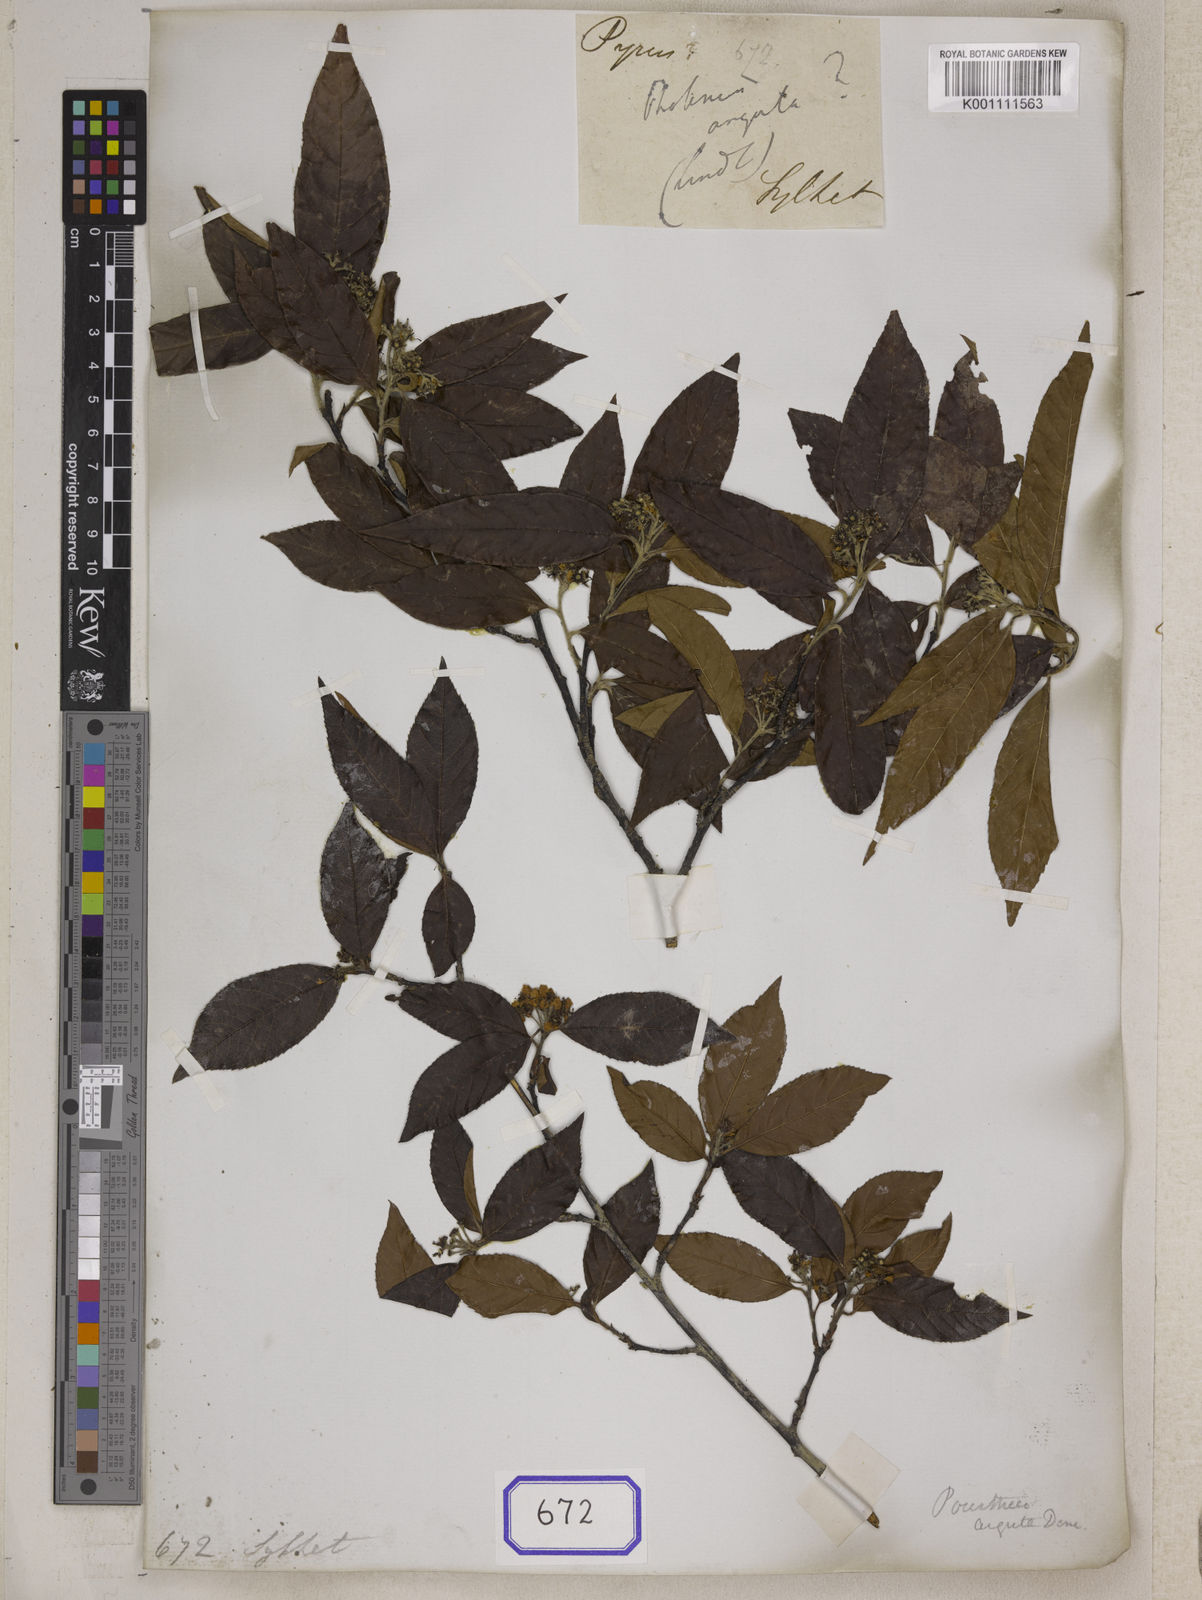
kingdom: Plantae
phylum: Tracheophyta
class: Magnoliopsida
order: Rosales
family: Rosaceae
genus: Photinia
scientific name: Photinia
